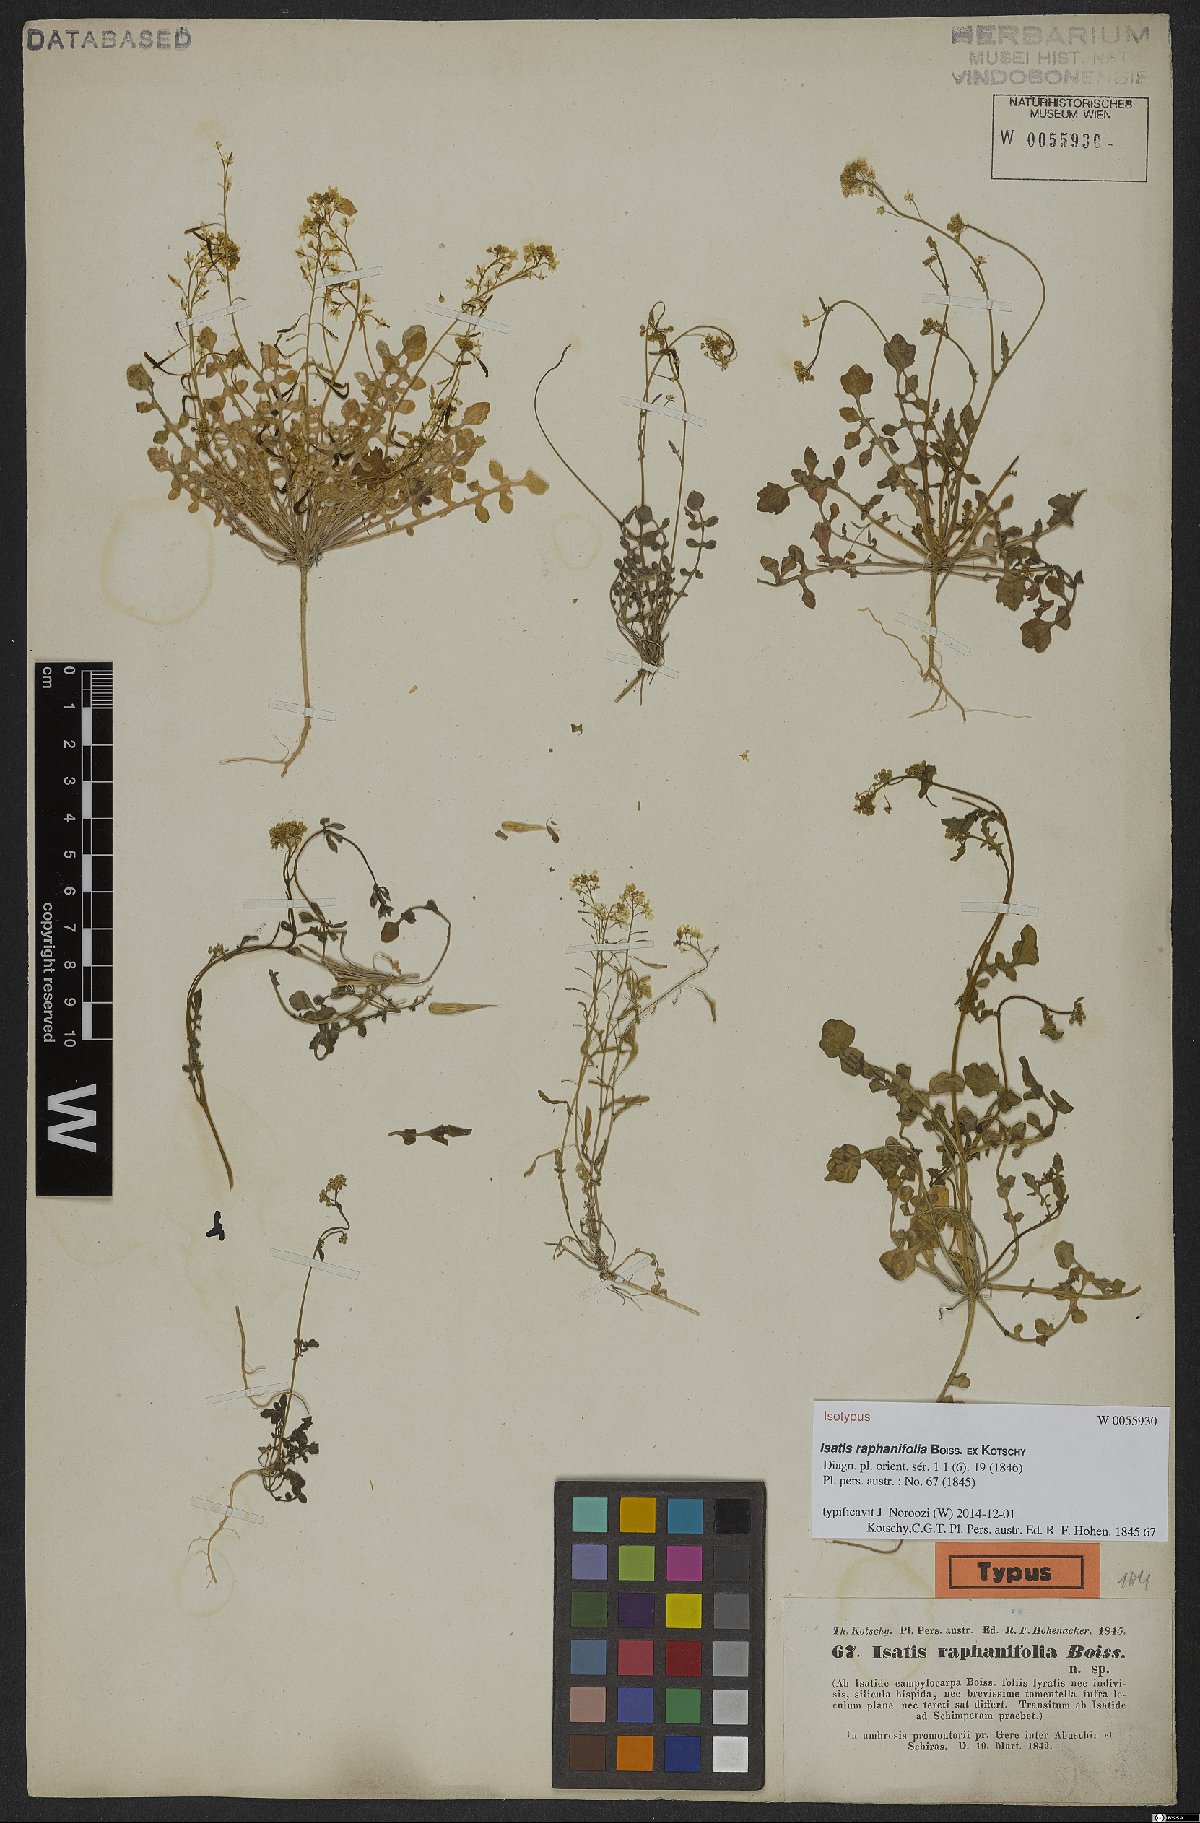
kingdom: Plantae
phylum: Tracheophyta
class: Magnoliopsida
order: Brassicales
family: Brassicaceae
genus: Isatis
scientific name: Isatis raphanifolia
